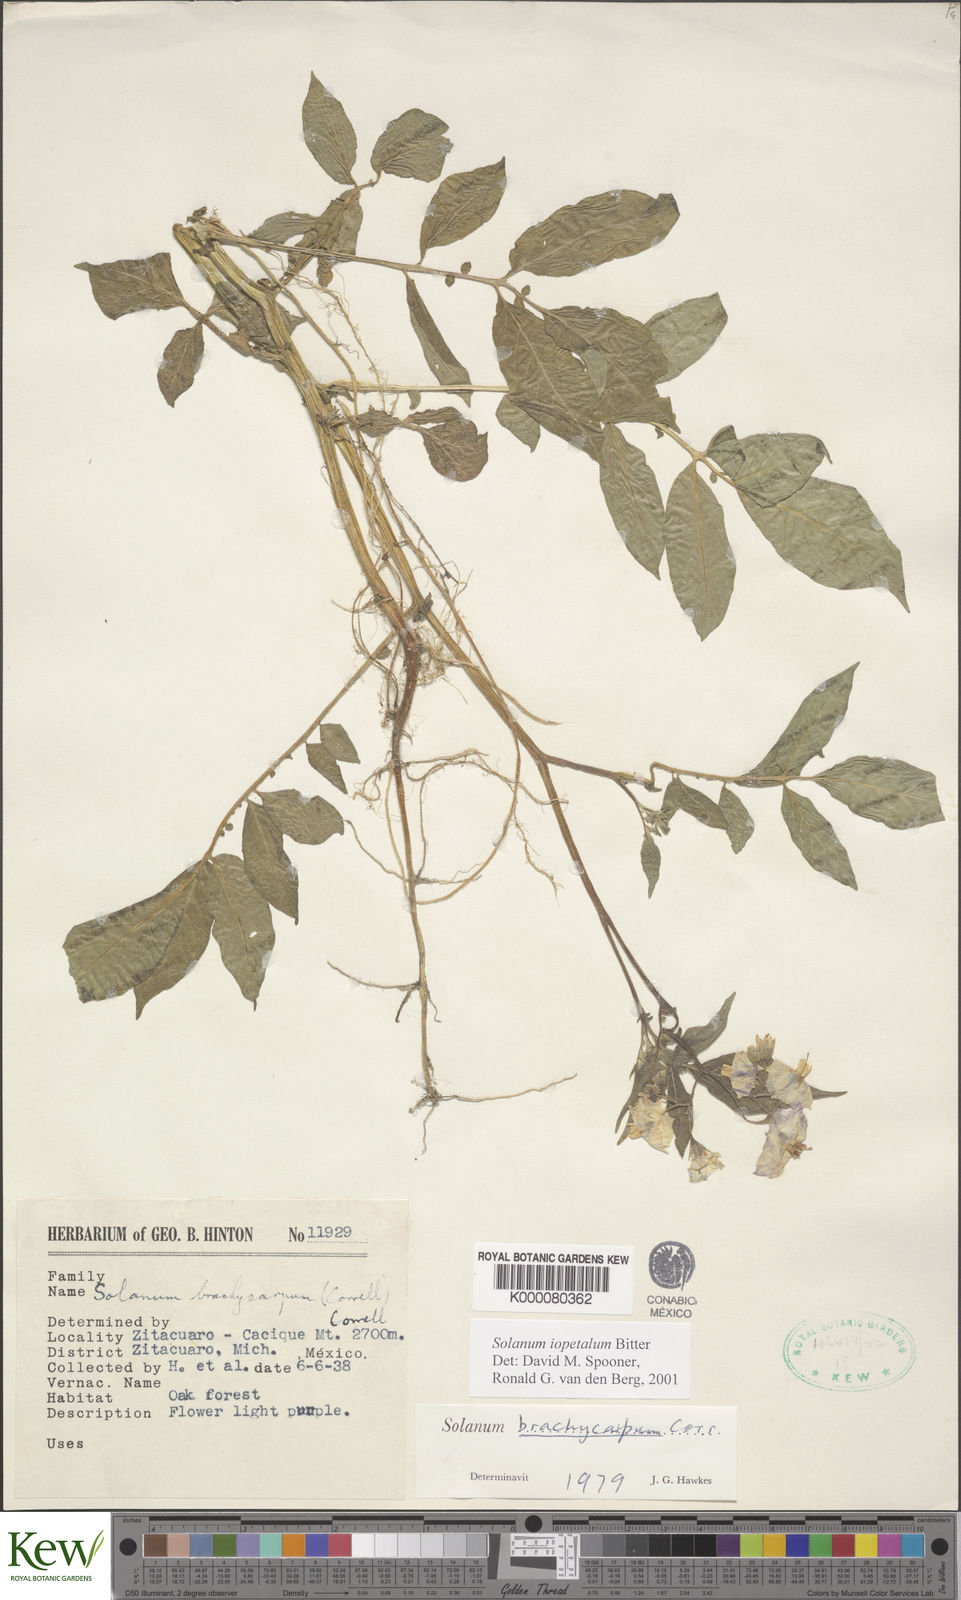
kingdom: Plantae
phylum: Tracheophyta
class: Magnoliopsida
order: Solanales
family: Solanaceae
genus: Solanum
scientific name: Solanum iopetalum
